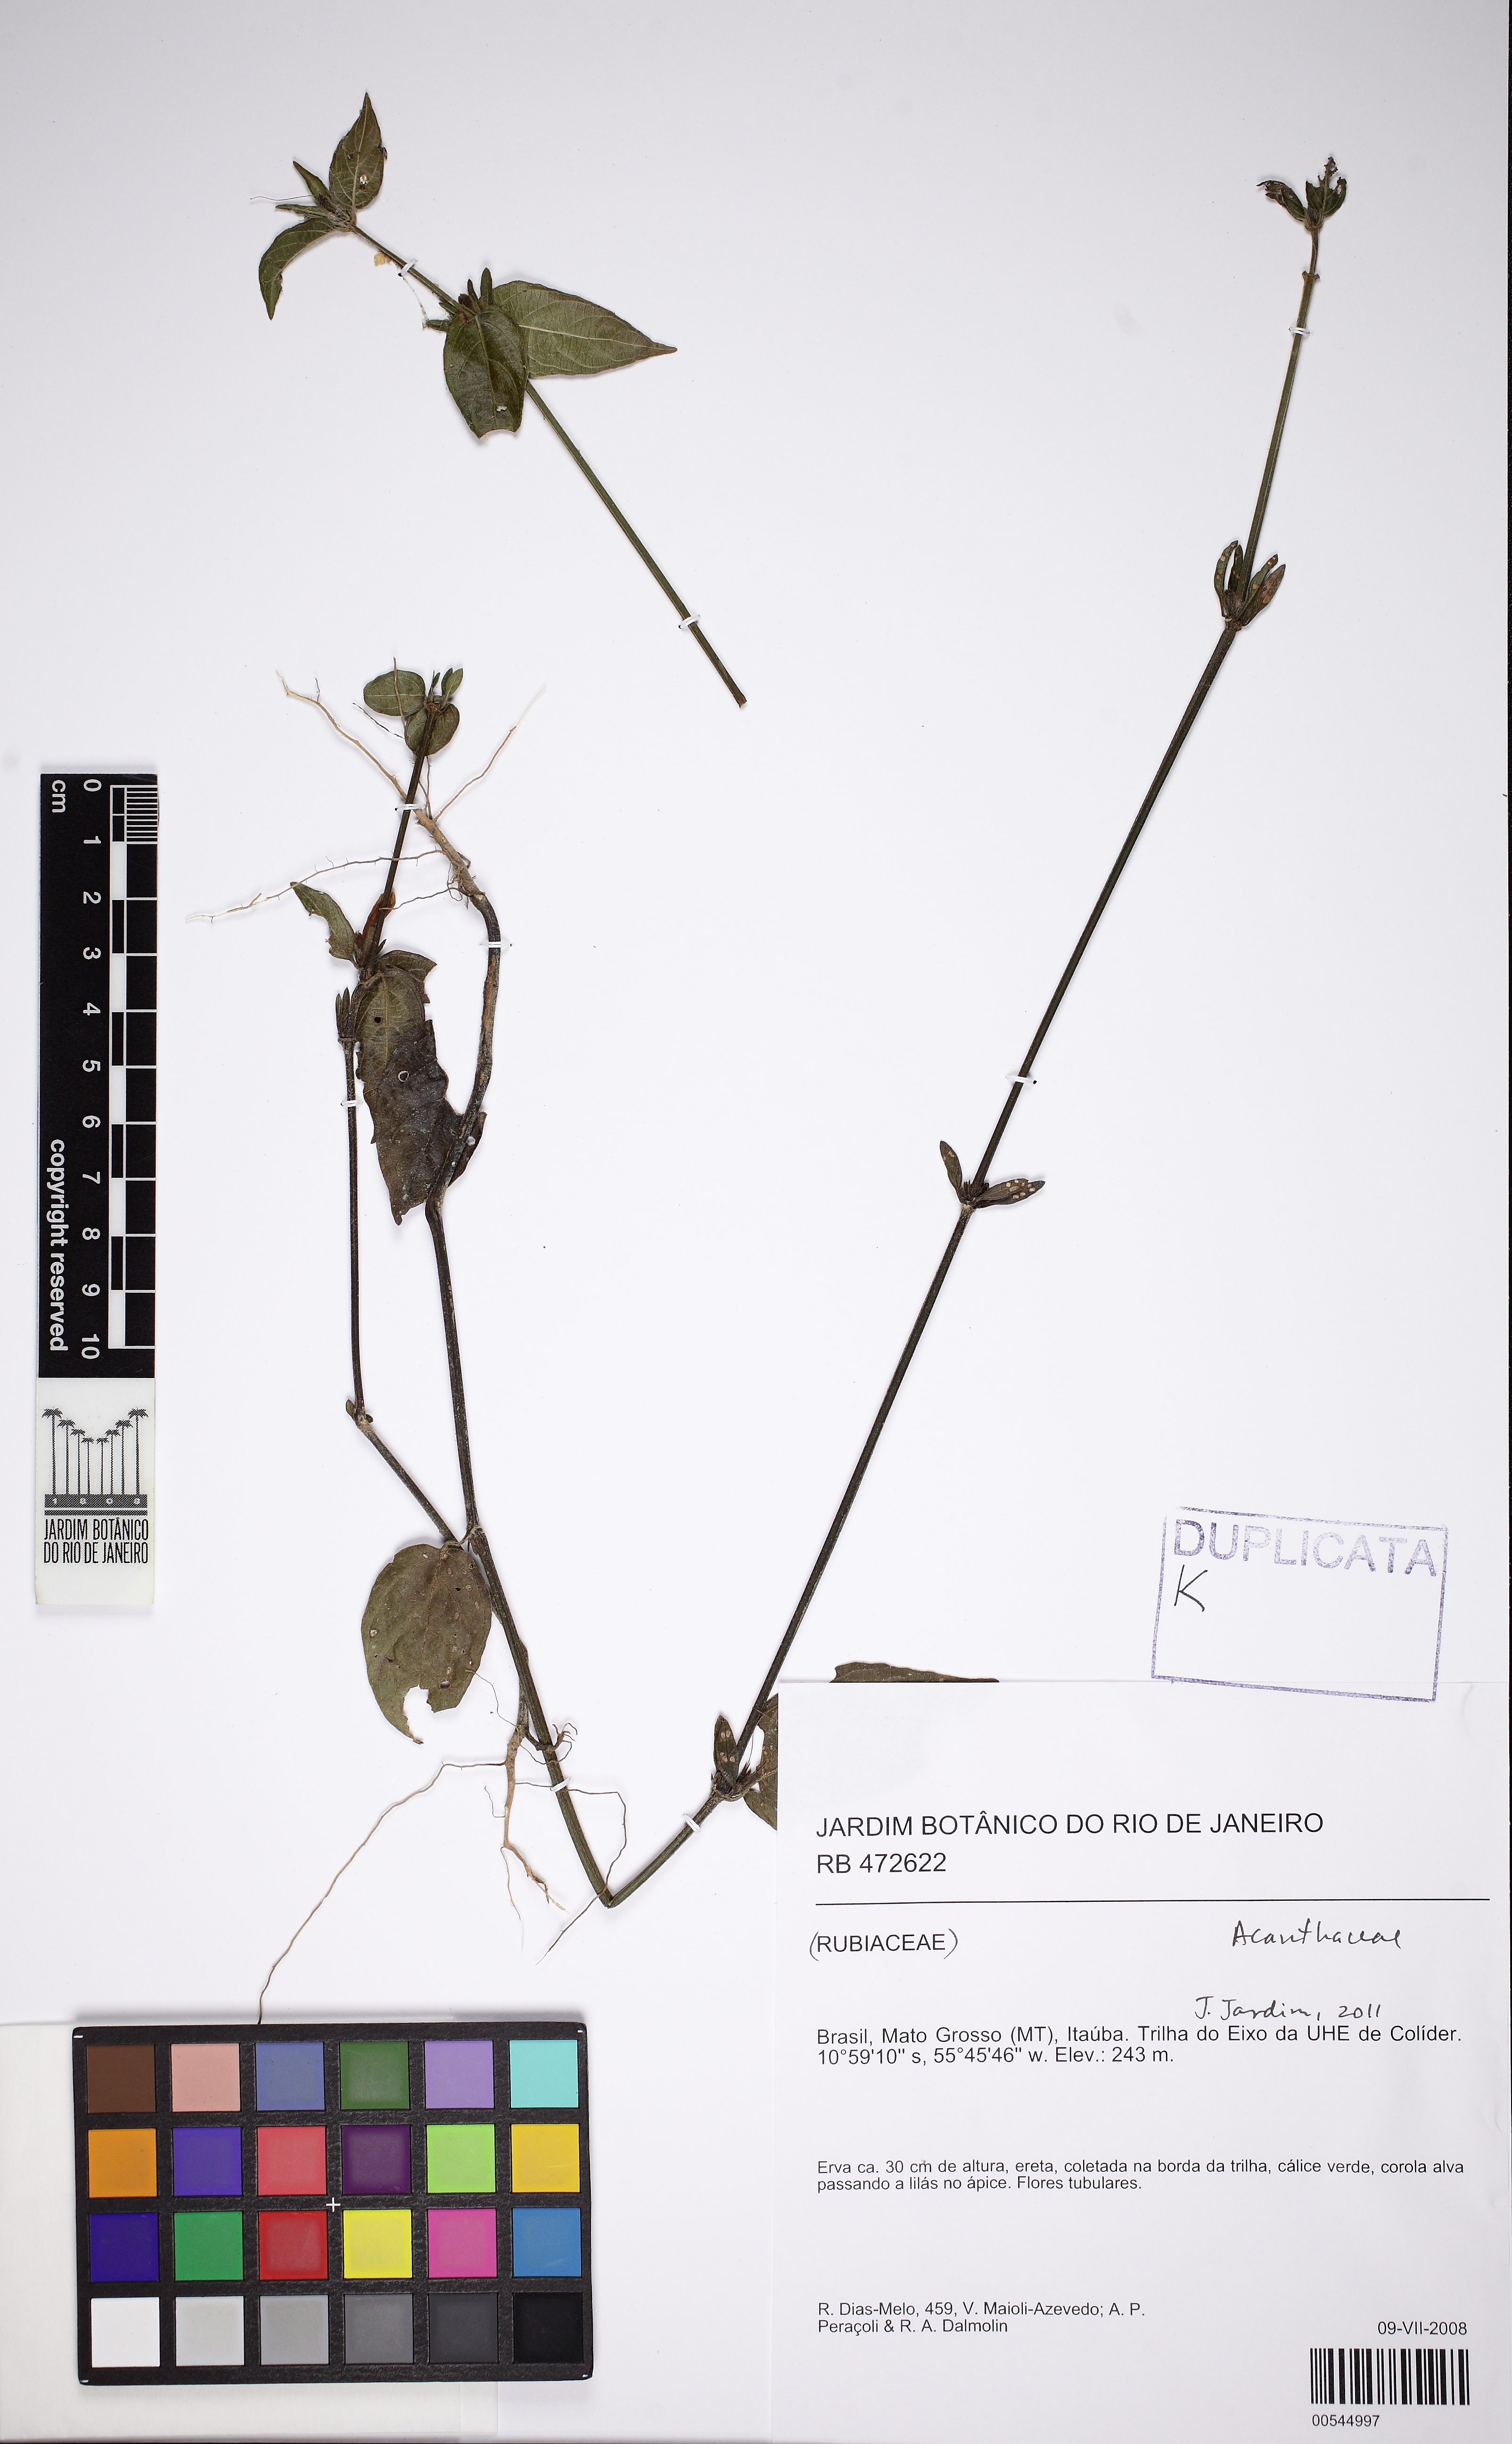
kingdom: Plantae
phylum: Tracheophyta
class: Magnoliopsida
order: Lamiales
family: Acanthaceae
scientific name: Acanthaceae
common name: Acanthaceae
